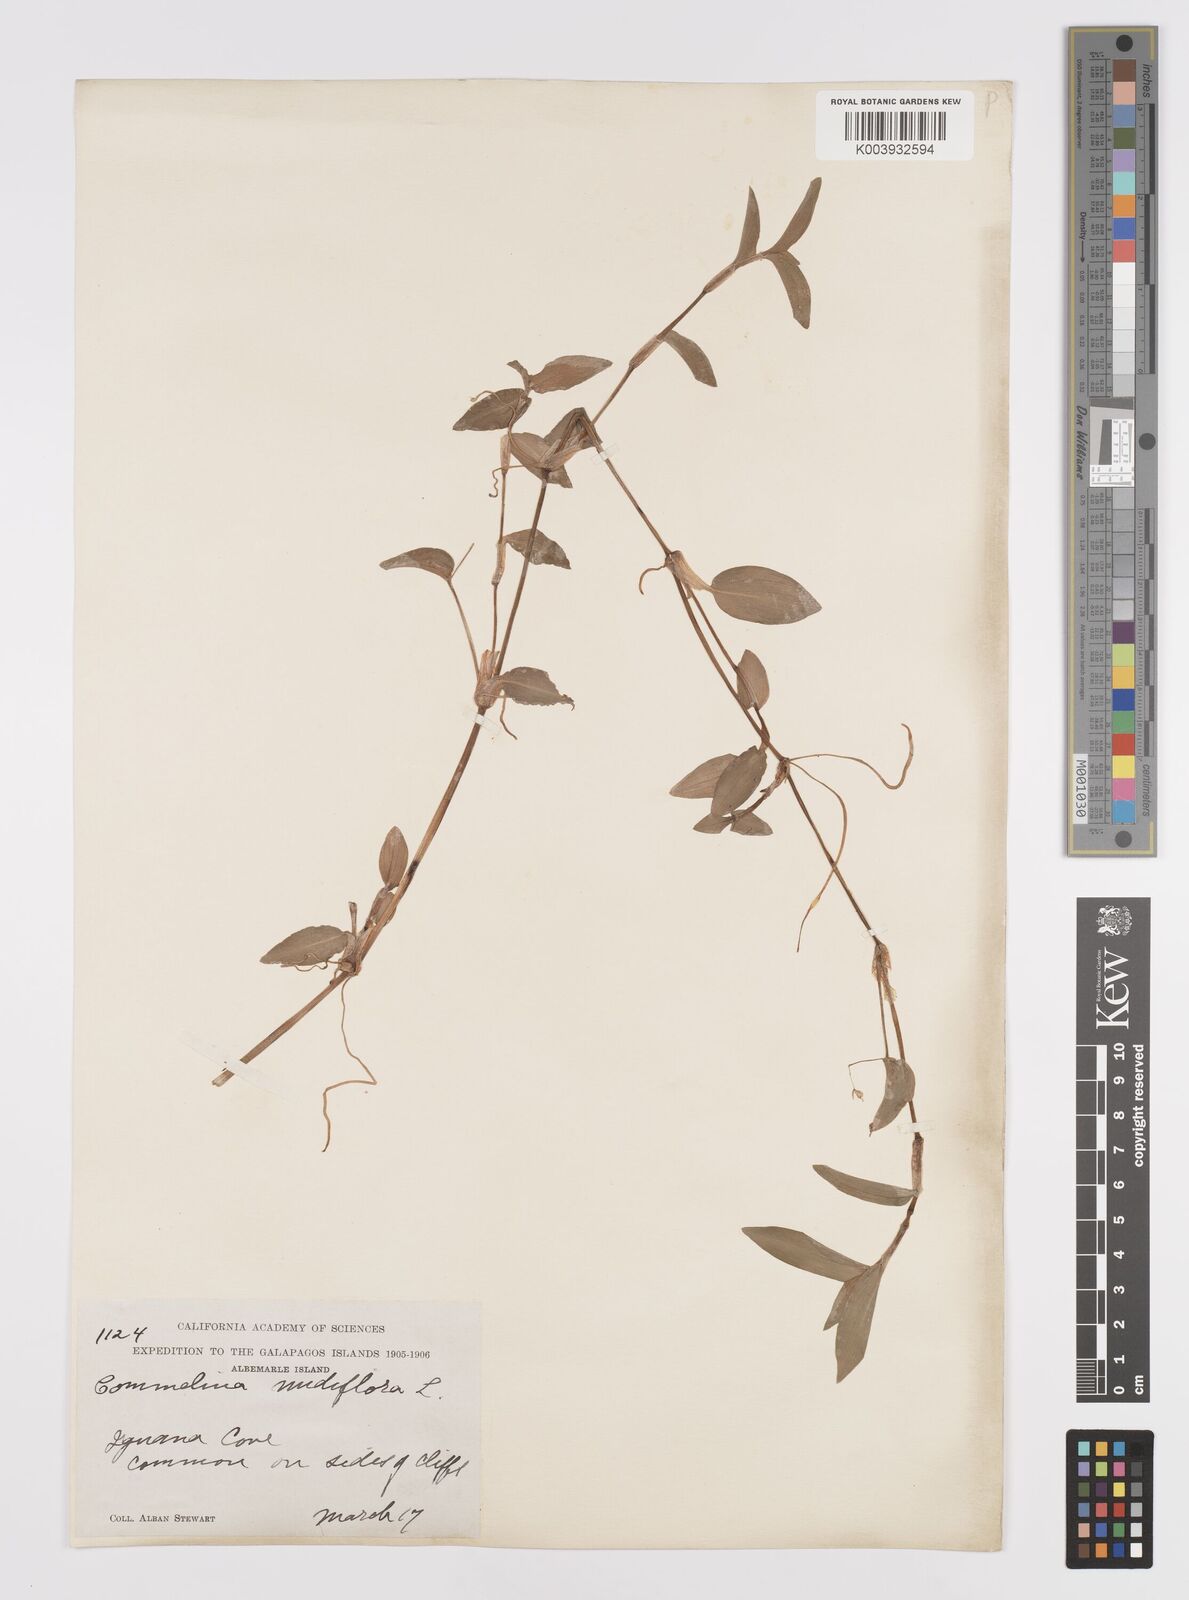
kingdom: Plantae
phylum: Tracheophyta
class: Liliopsida
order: Commelinales
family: Commelinaceae
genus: Commelina
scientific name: Commelina diffusa
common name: Climbing dayflower
